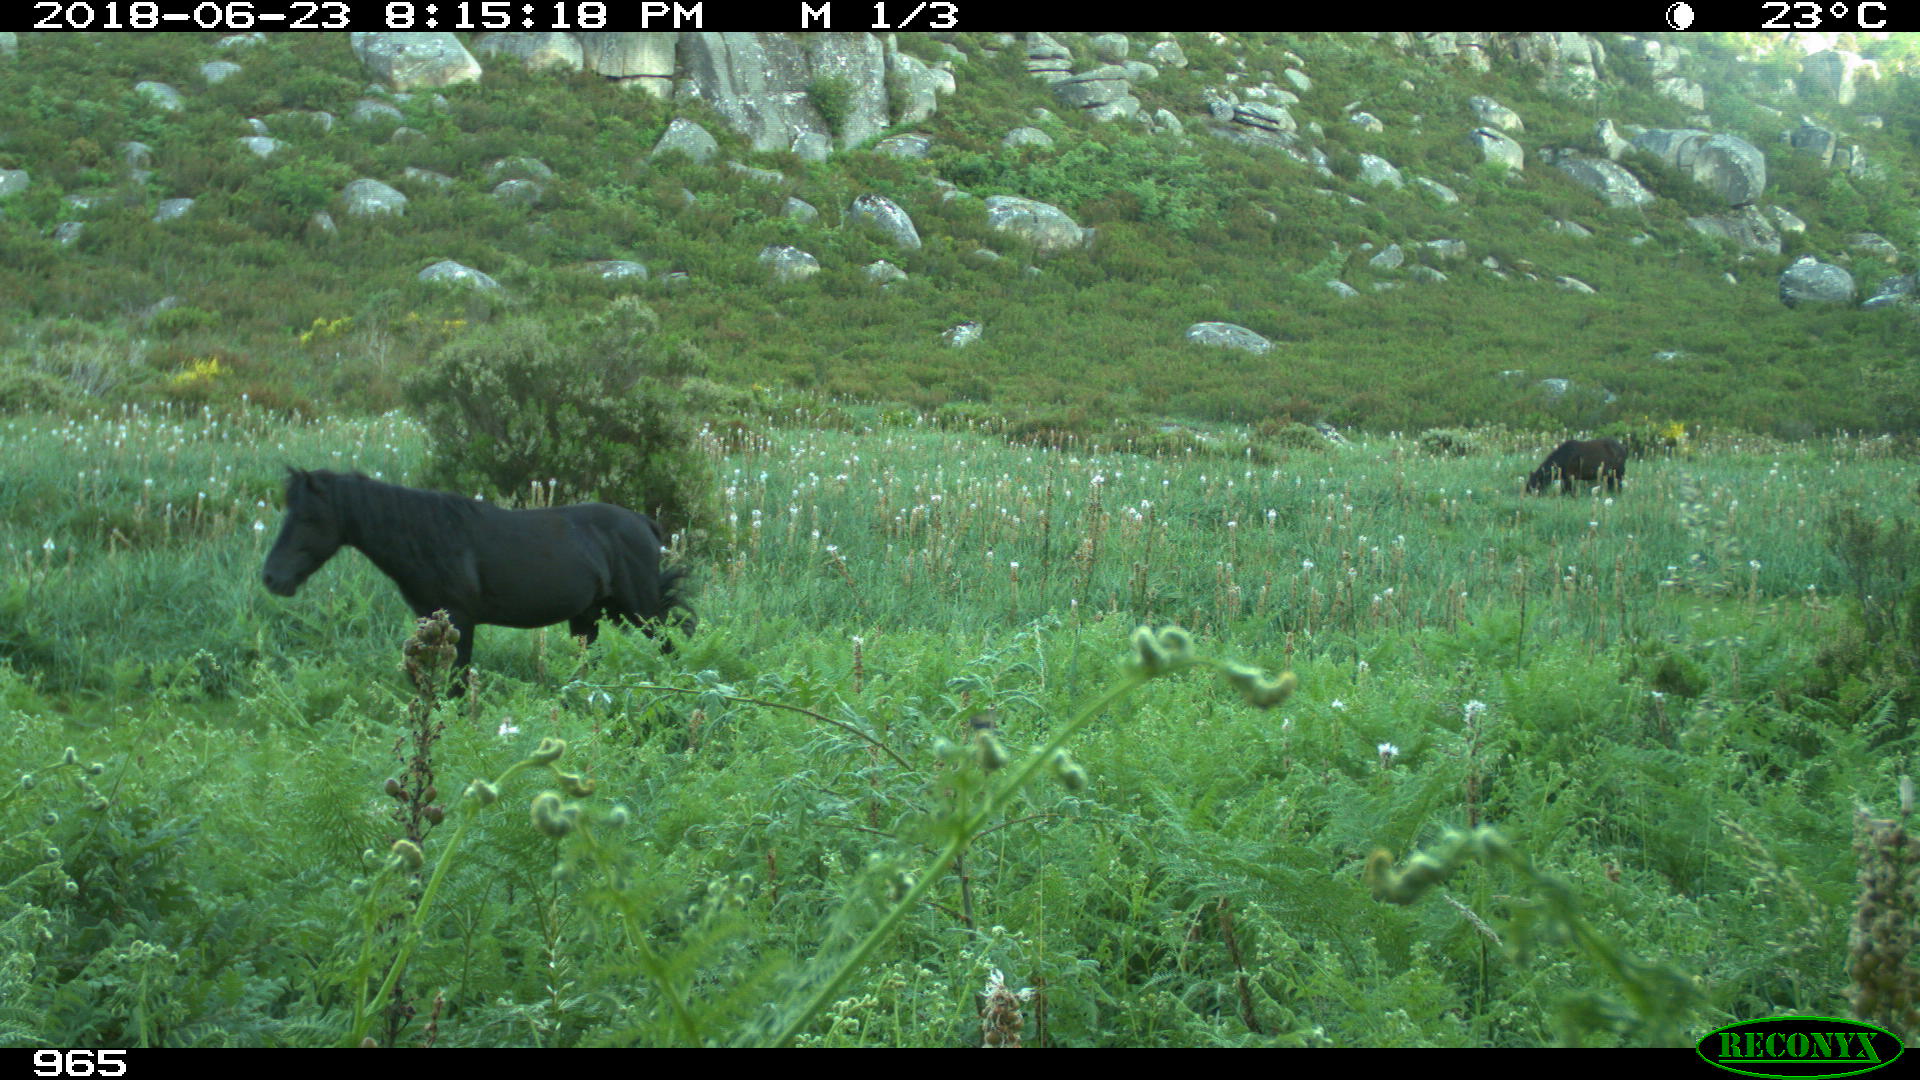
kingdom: Animalia
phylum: Chordata
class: Mammalia
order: Perissodactyla
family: Equidae
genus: Equus
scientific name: Equus caballus
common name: Horse
